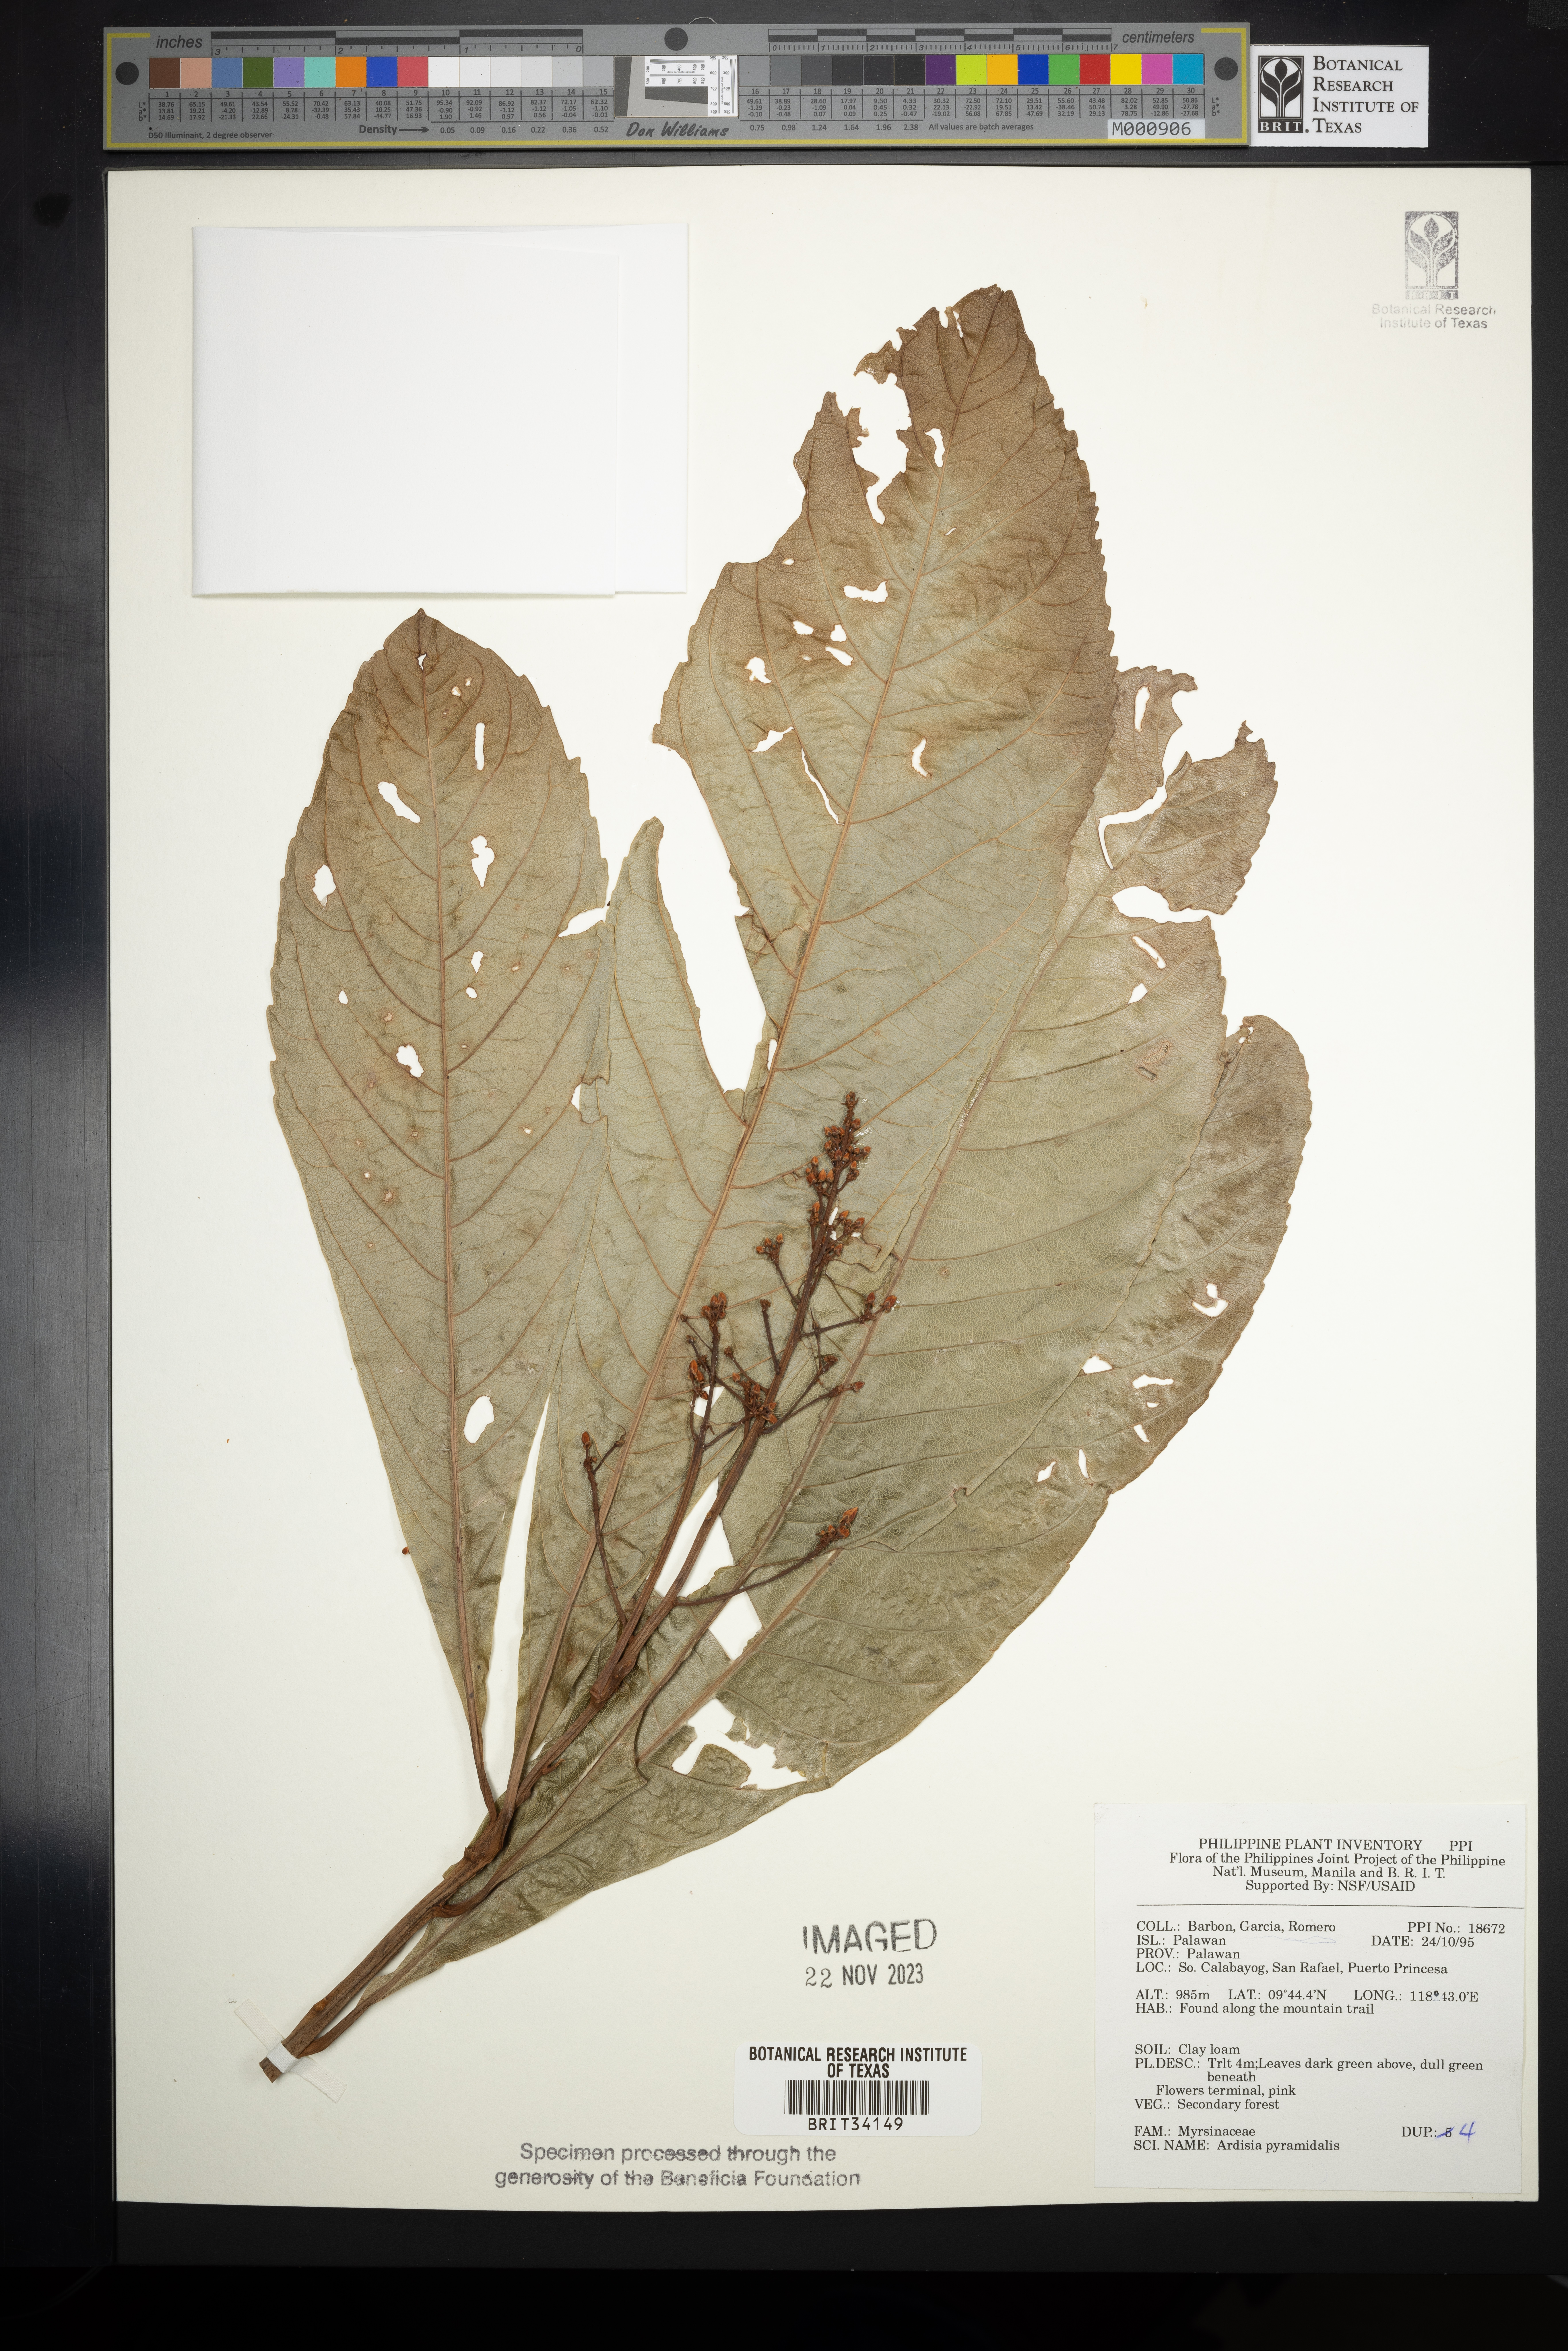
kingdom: Plantae
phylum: Tracheophyta
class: Magnoliopsida
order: Ericales
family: Primulaceae
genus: Ardisia
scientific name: Ardisia pyramidalis
